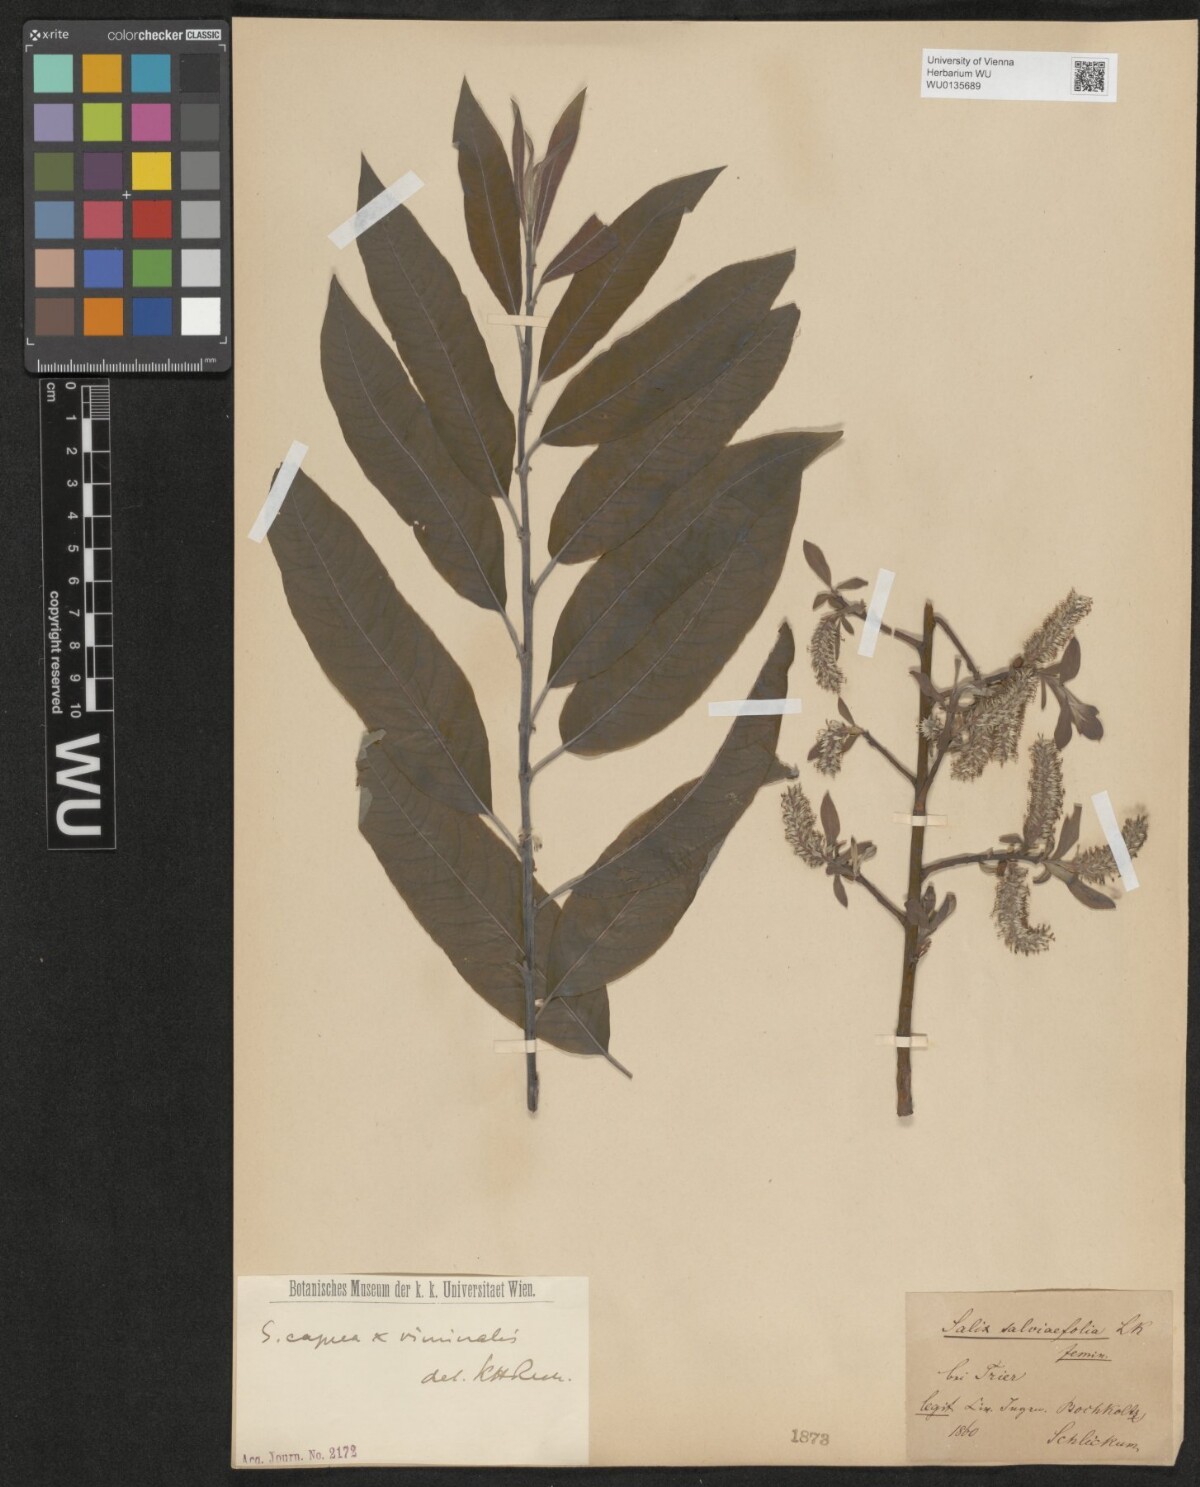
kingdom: Plantae
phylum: Tracheophyta
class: Magnoliopsida
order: Malpighiales
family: Salicaceae
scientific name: Salicaceae
